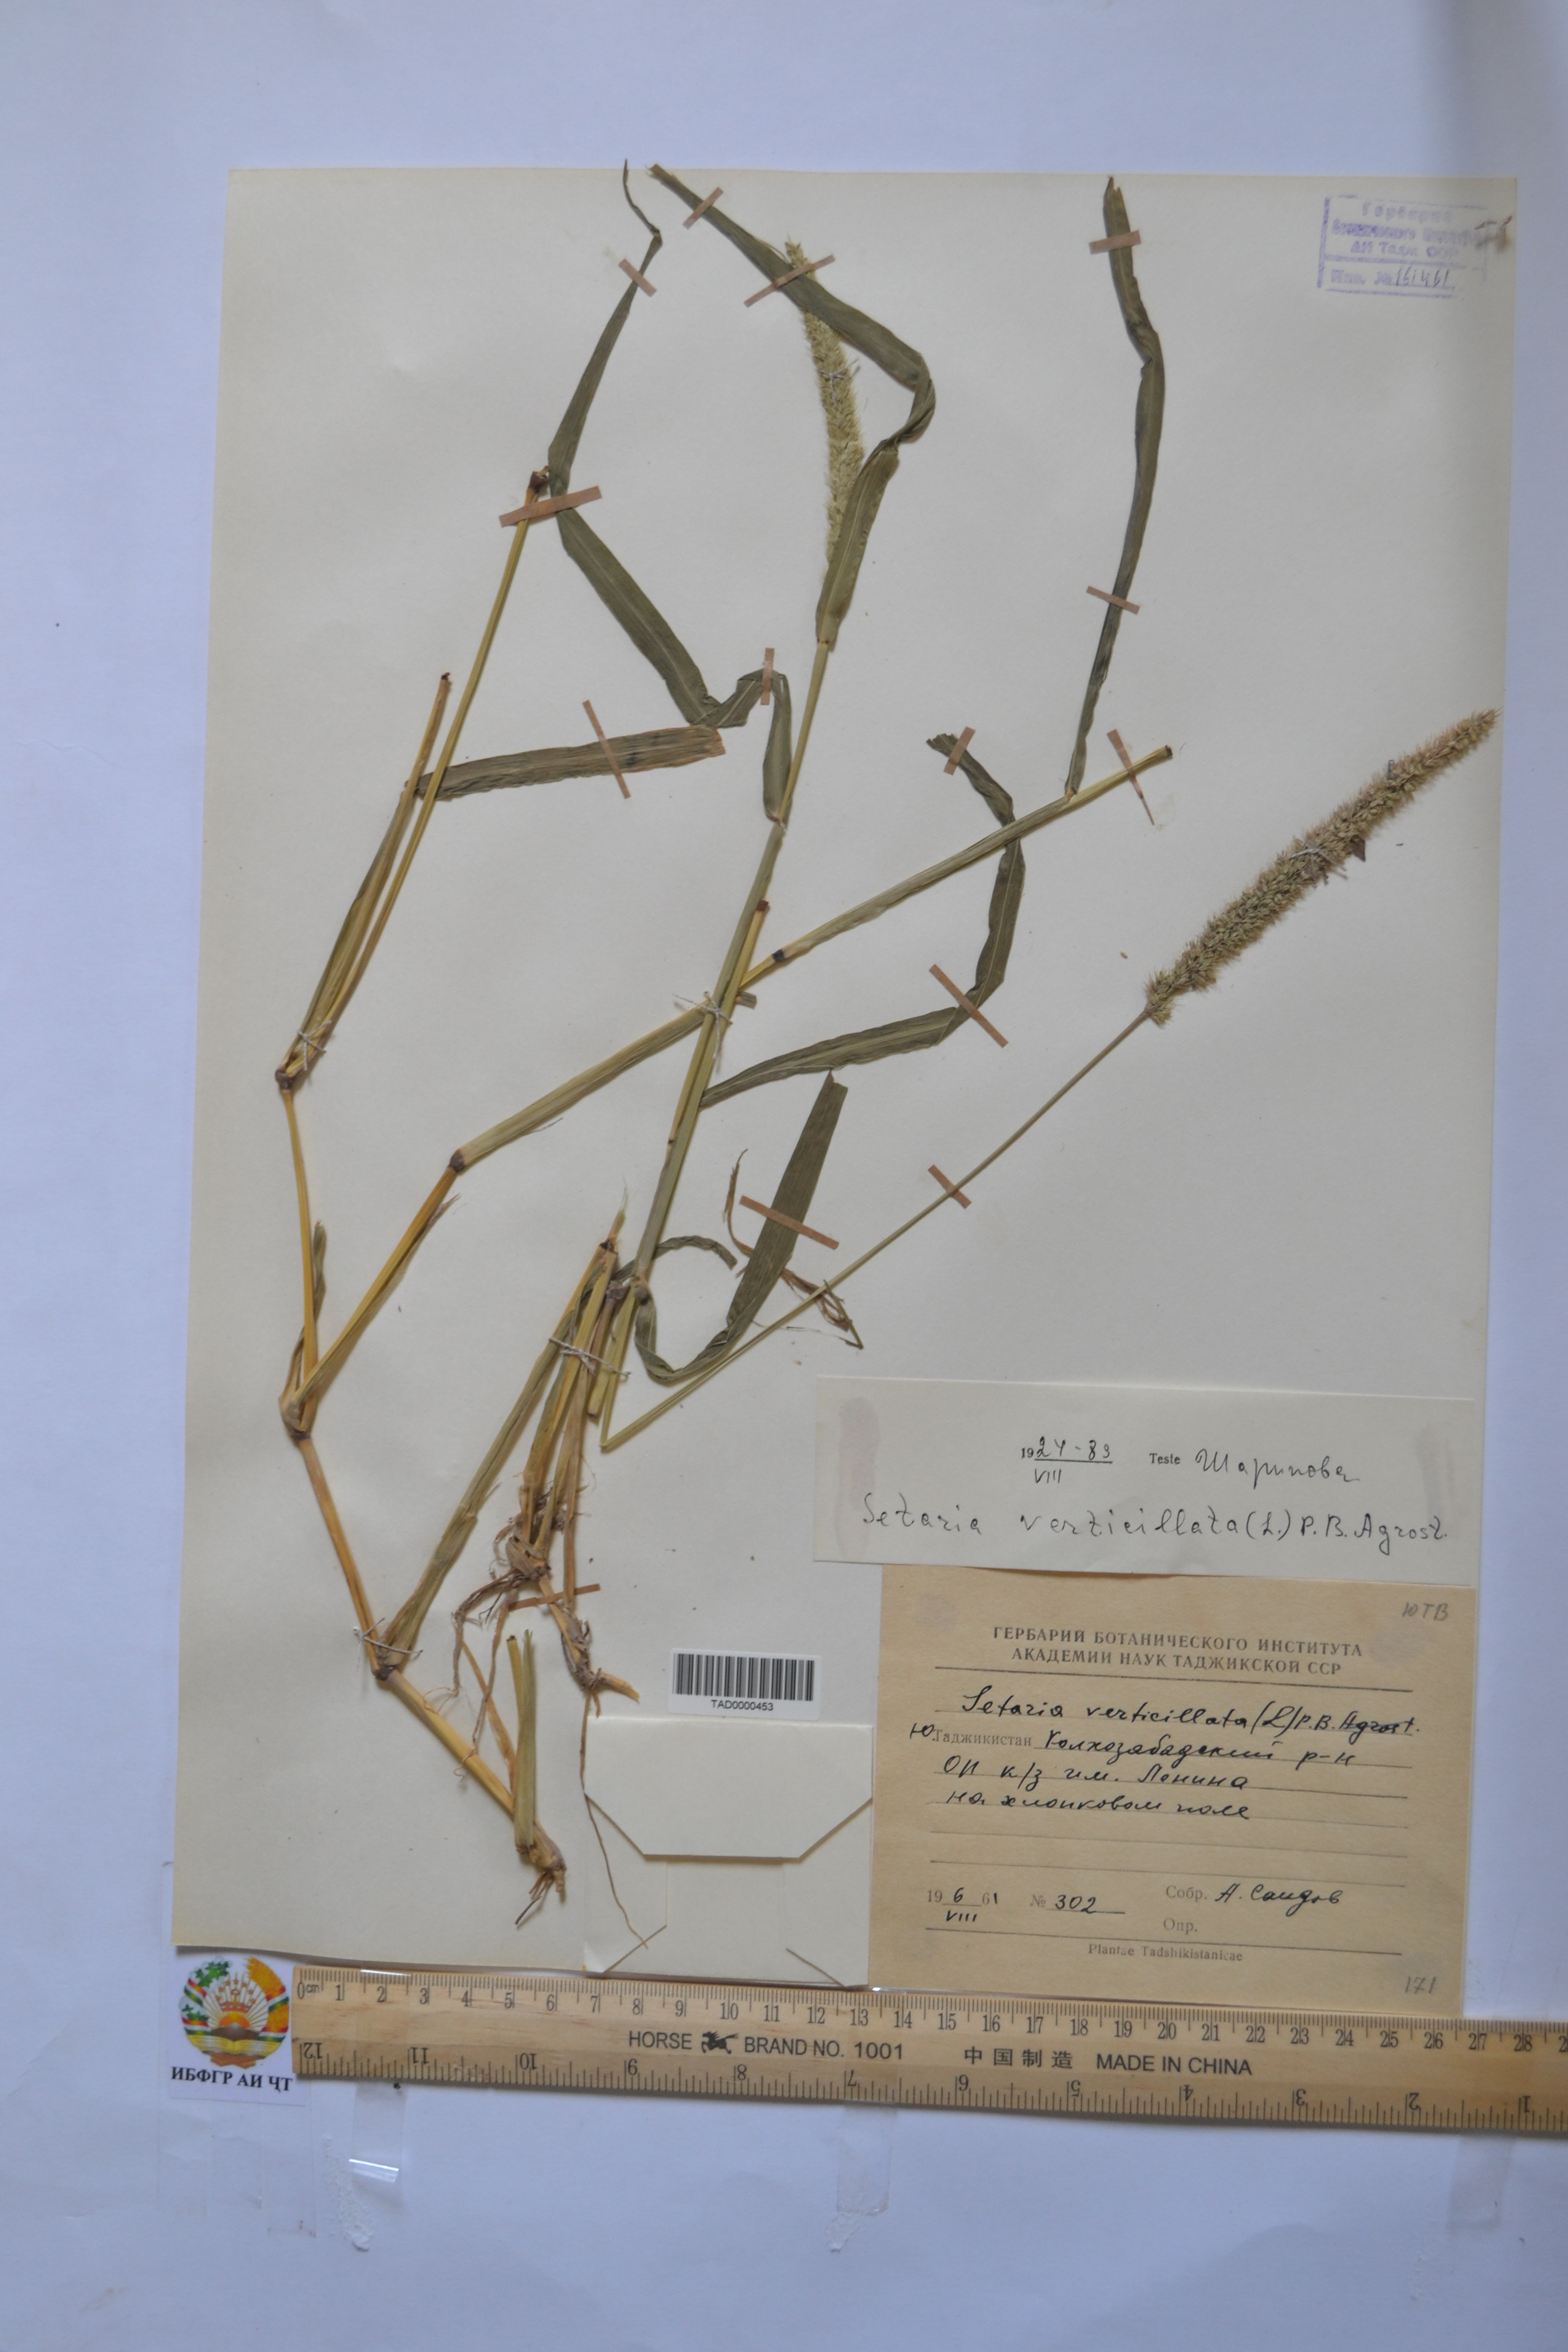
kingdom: Plantae
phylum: Tracheophyta
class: Liliopsida
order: Poales
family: Poaceae
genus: Setaria
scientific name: Setaria verticillata
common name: Hooked bristlegrass
